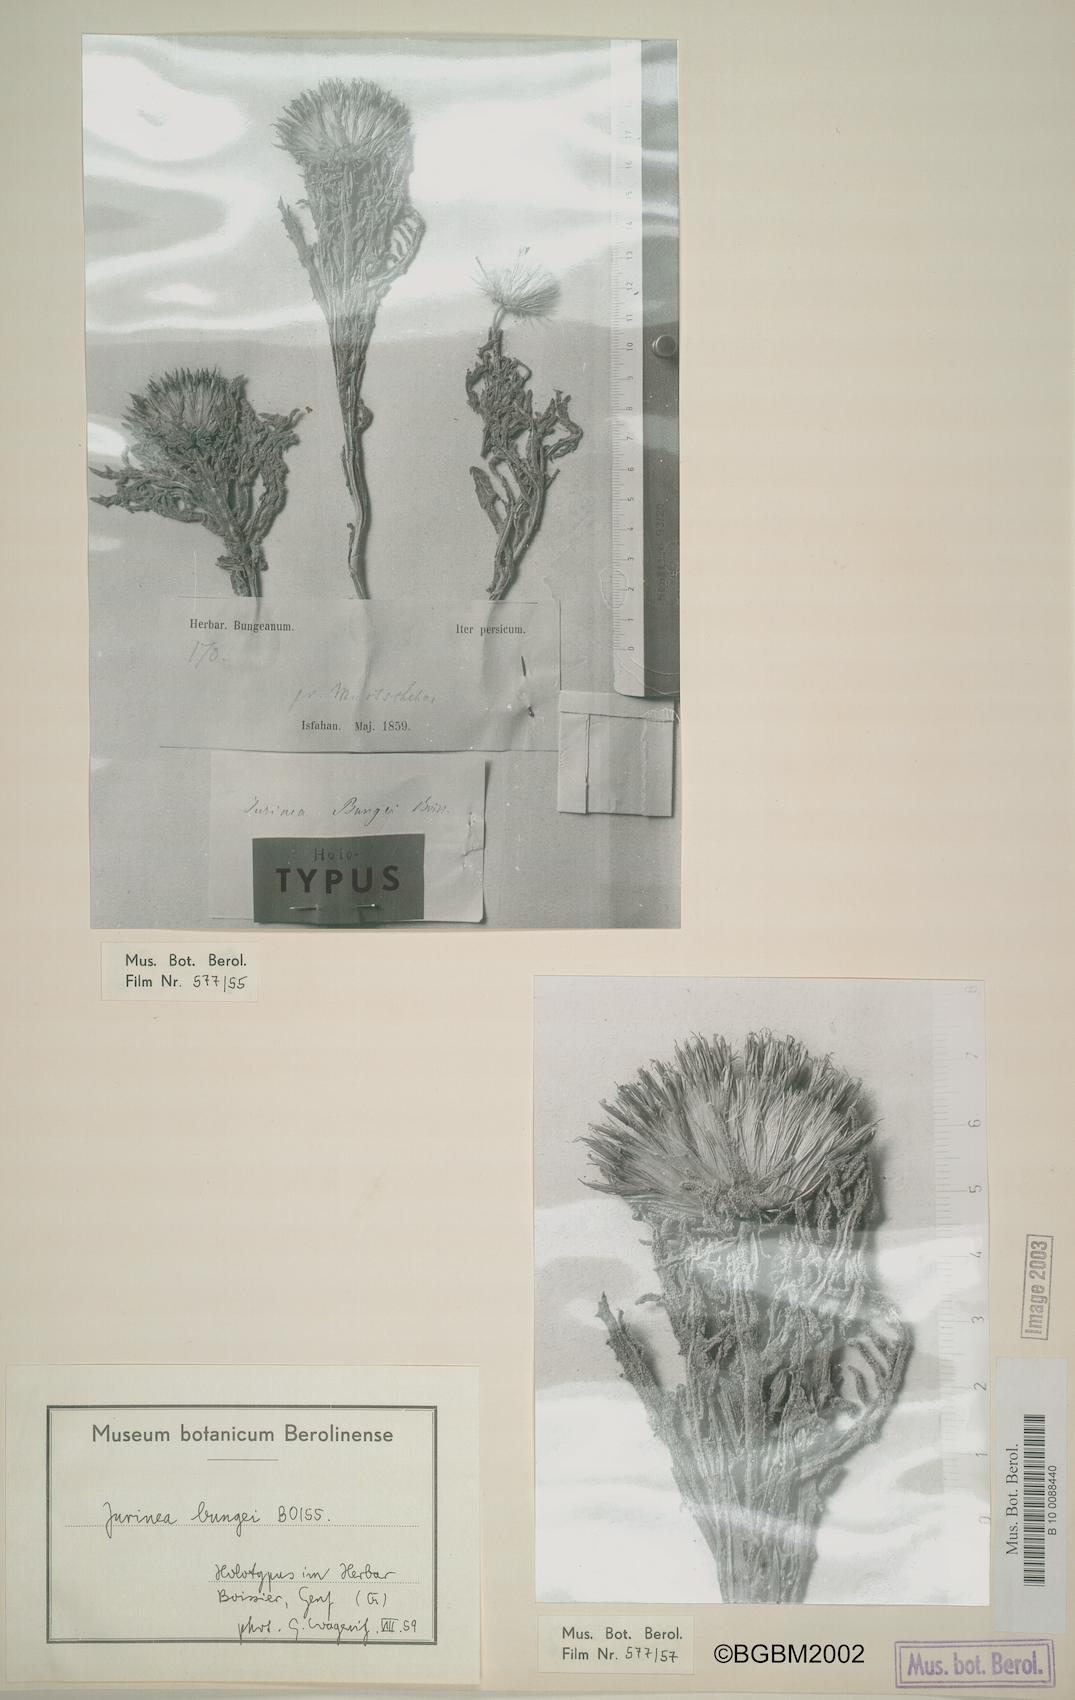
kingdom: Plantae
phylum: Tracheophyta
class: Magnoliopsida
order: Asterales
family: Asteraceae
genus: Jurinea
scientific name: Jurinea bungei
